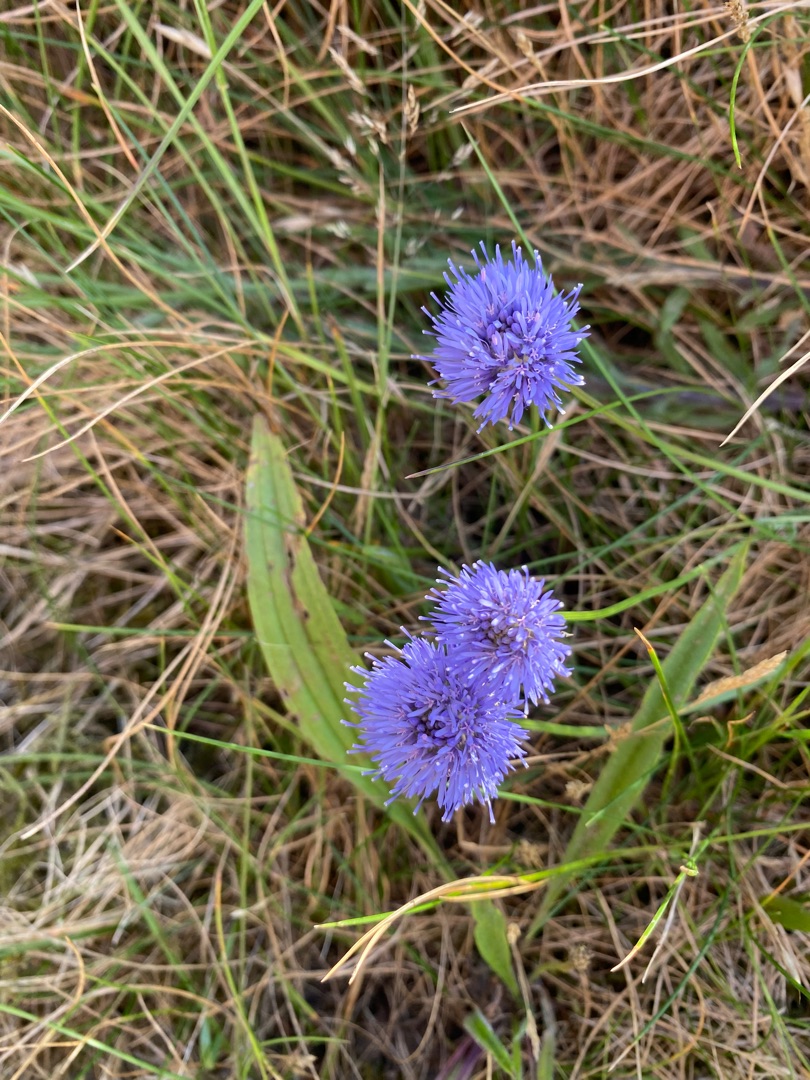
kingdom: Plantae
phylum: Tracheophyta
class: Magnoliopsida
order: Asterales
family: Campanulaceae
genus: Jasione
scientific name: Jasione montana
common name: Blåmunke
